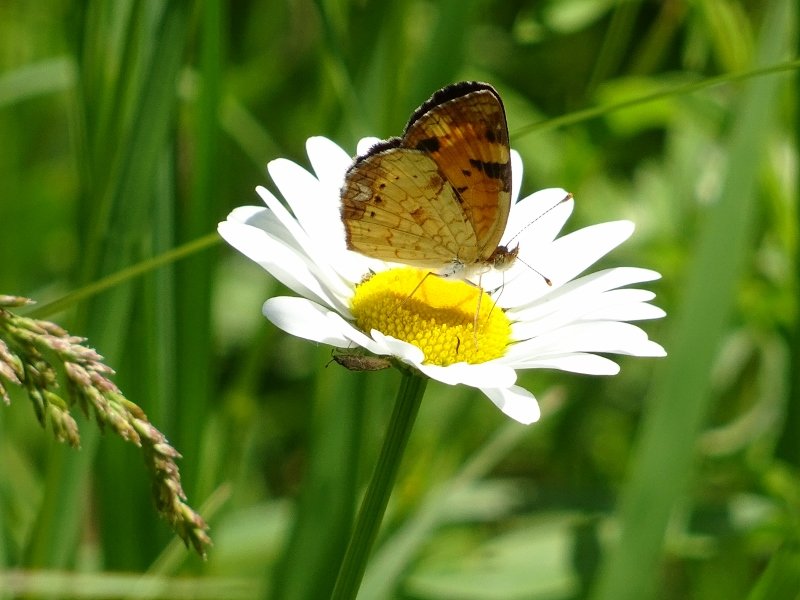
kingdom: Animalia
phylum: Arthropoda
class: Insecta
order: Lepidoptera
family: Nymphalidae
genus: Phyciodes
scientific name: Phyciodes tharos
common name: Northern Crescent
